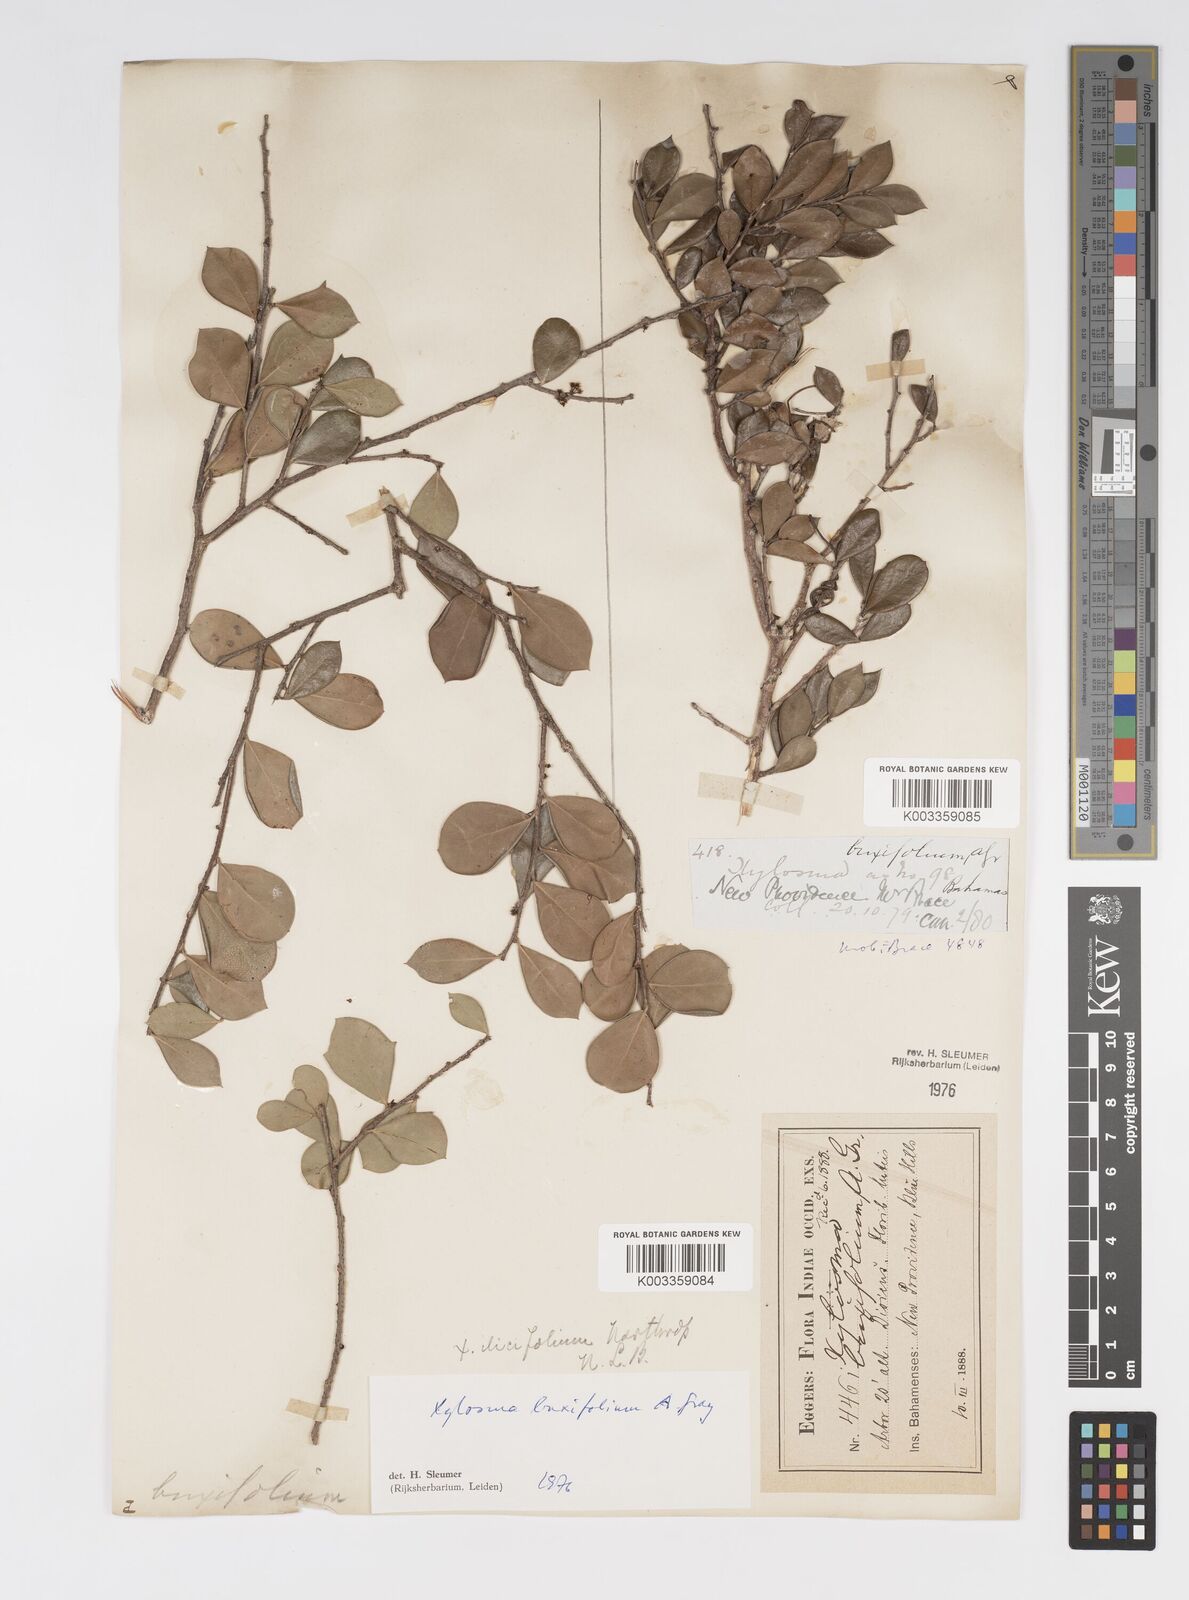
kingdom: Plantae
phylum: Tracheophyta
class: Magnoliopsida
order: Malpighiales
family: Salicaceae
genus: Xylosma
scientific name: Xylosma buxifolia
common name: Cockspur
